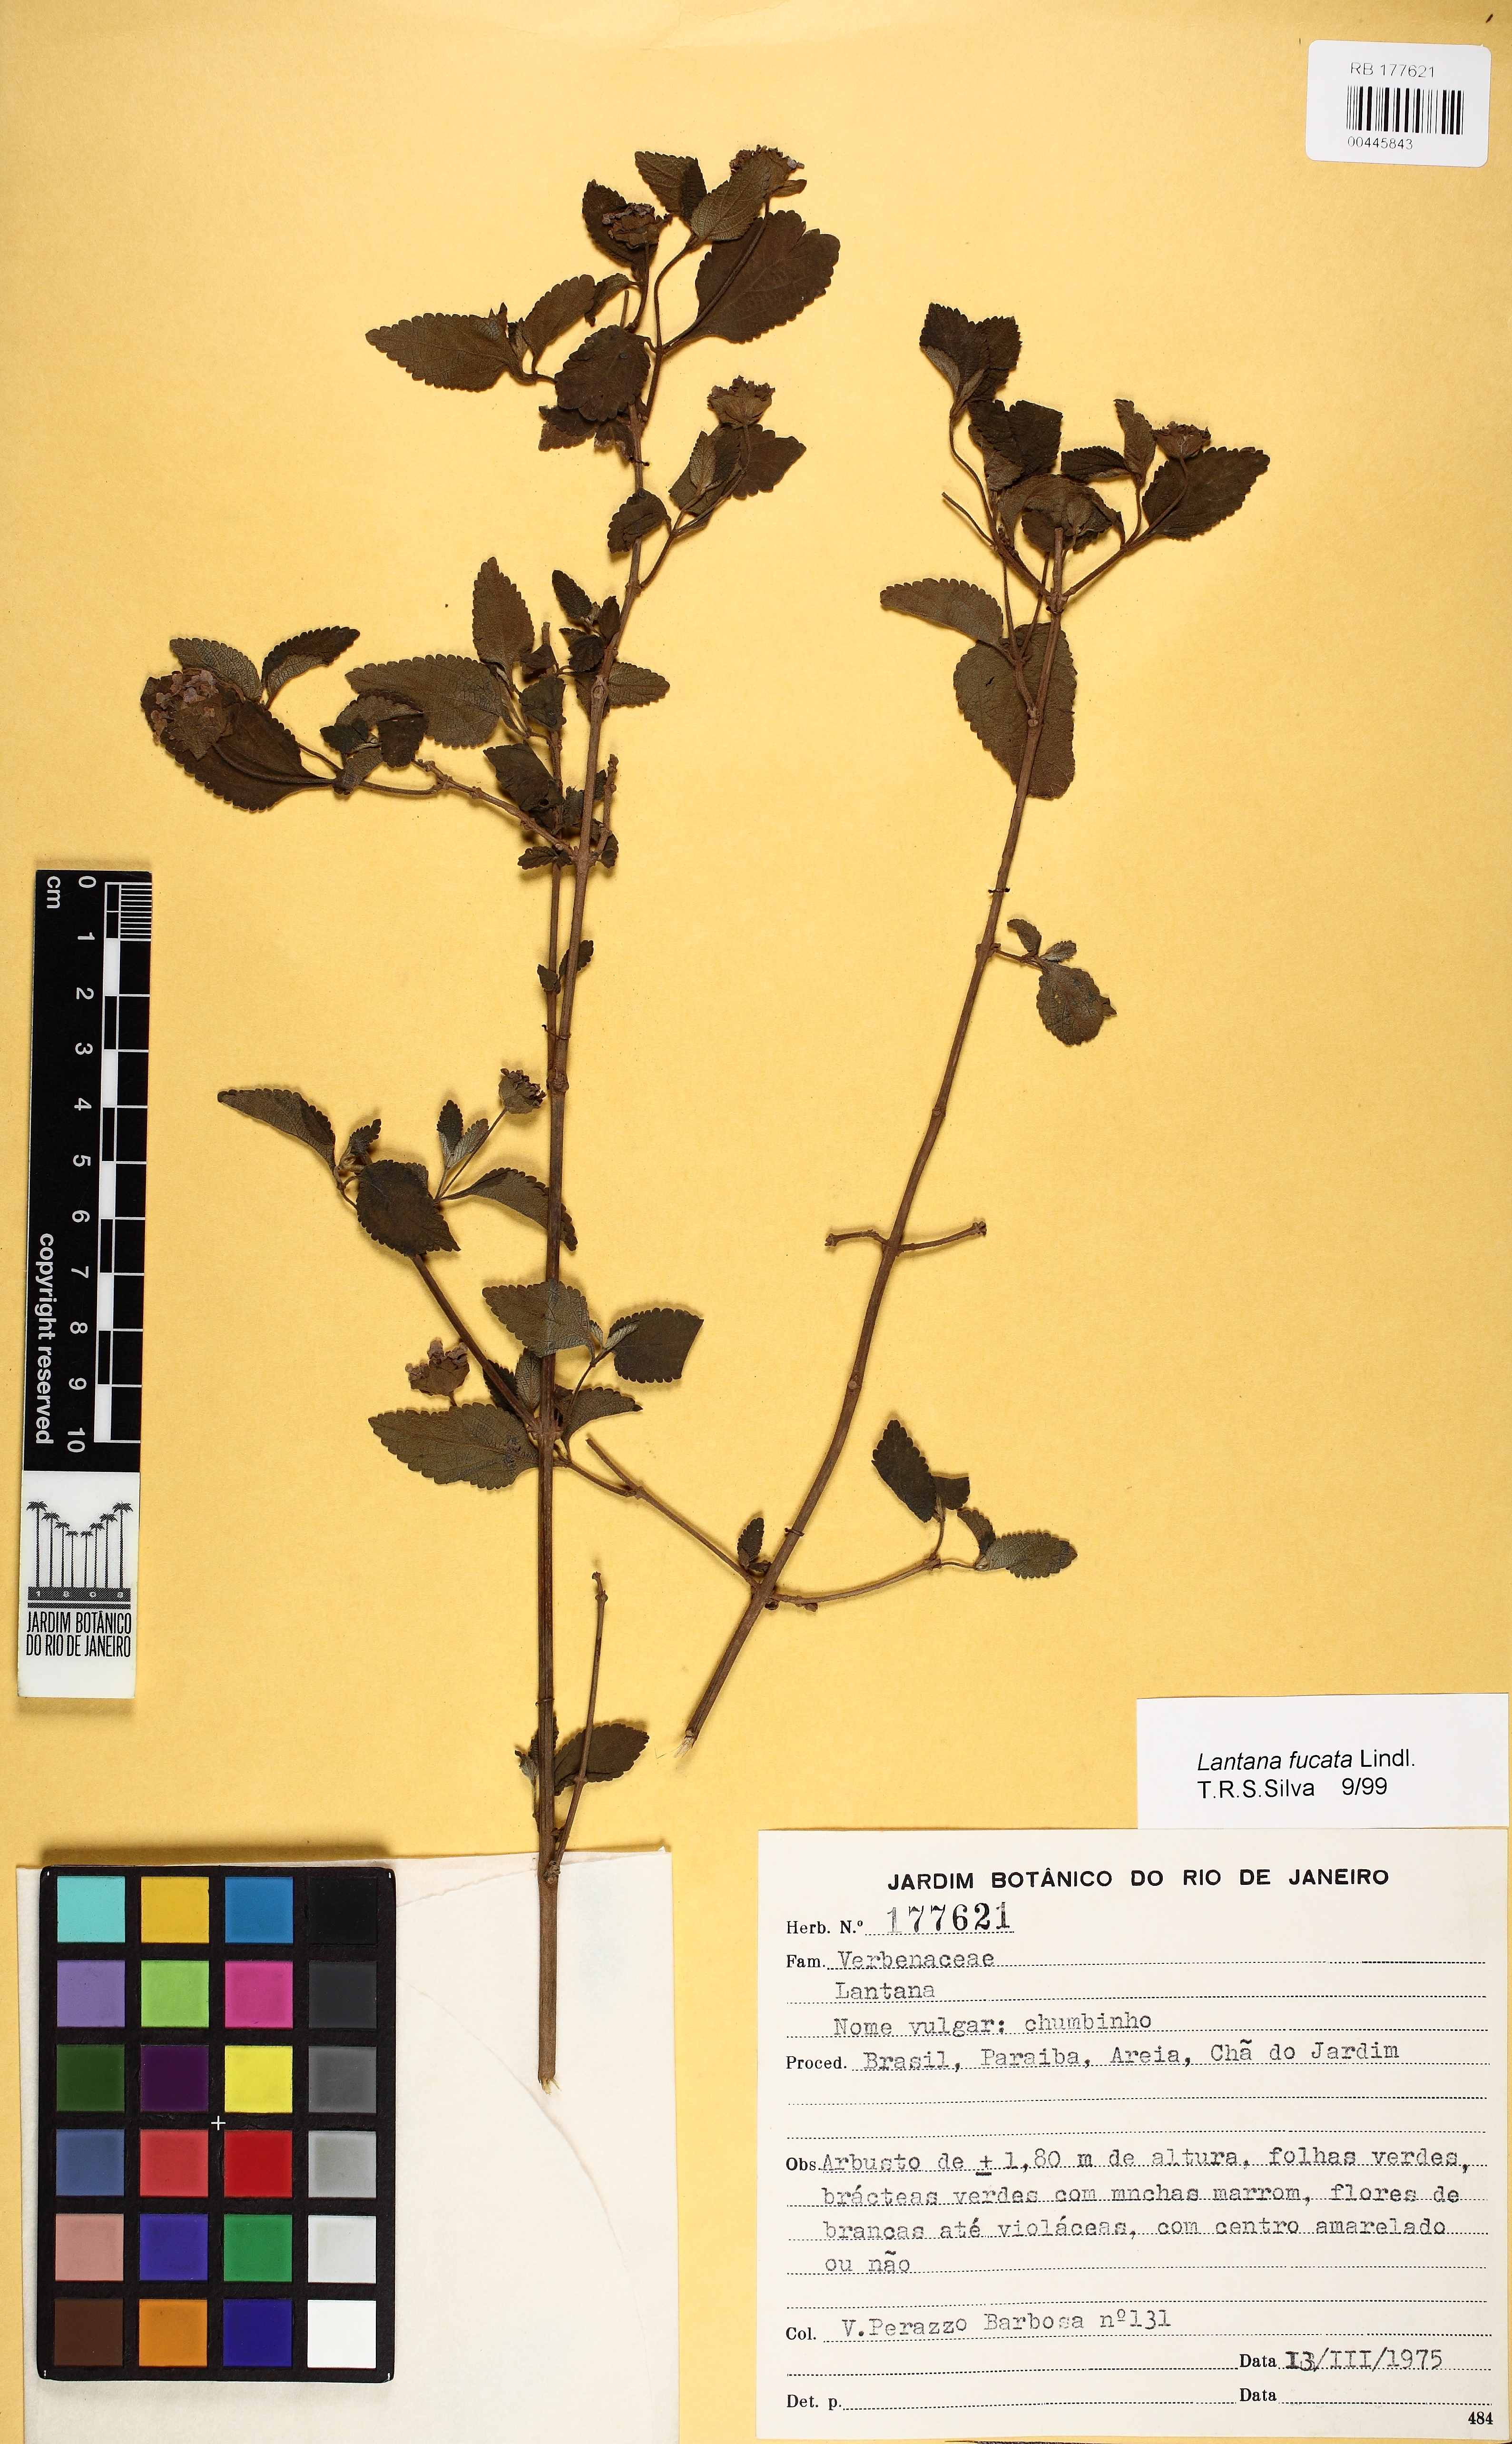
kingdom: Plantae
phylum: Tracheophyta
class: Magnoliopsida
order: Lamiales
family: Verbenaceae
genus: Lantana
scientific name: Lantana fucata
